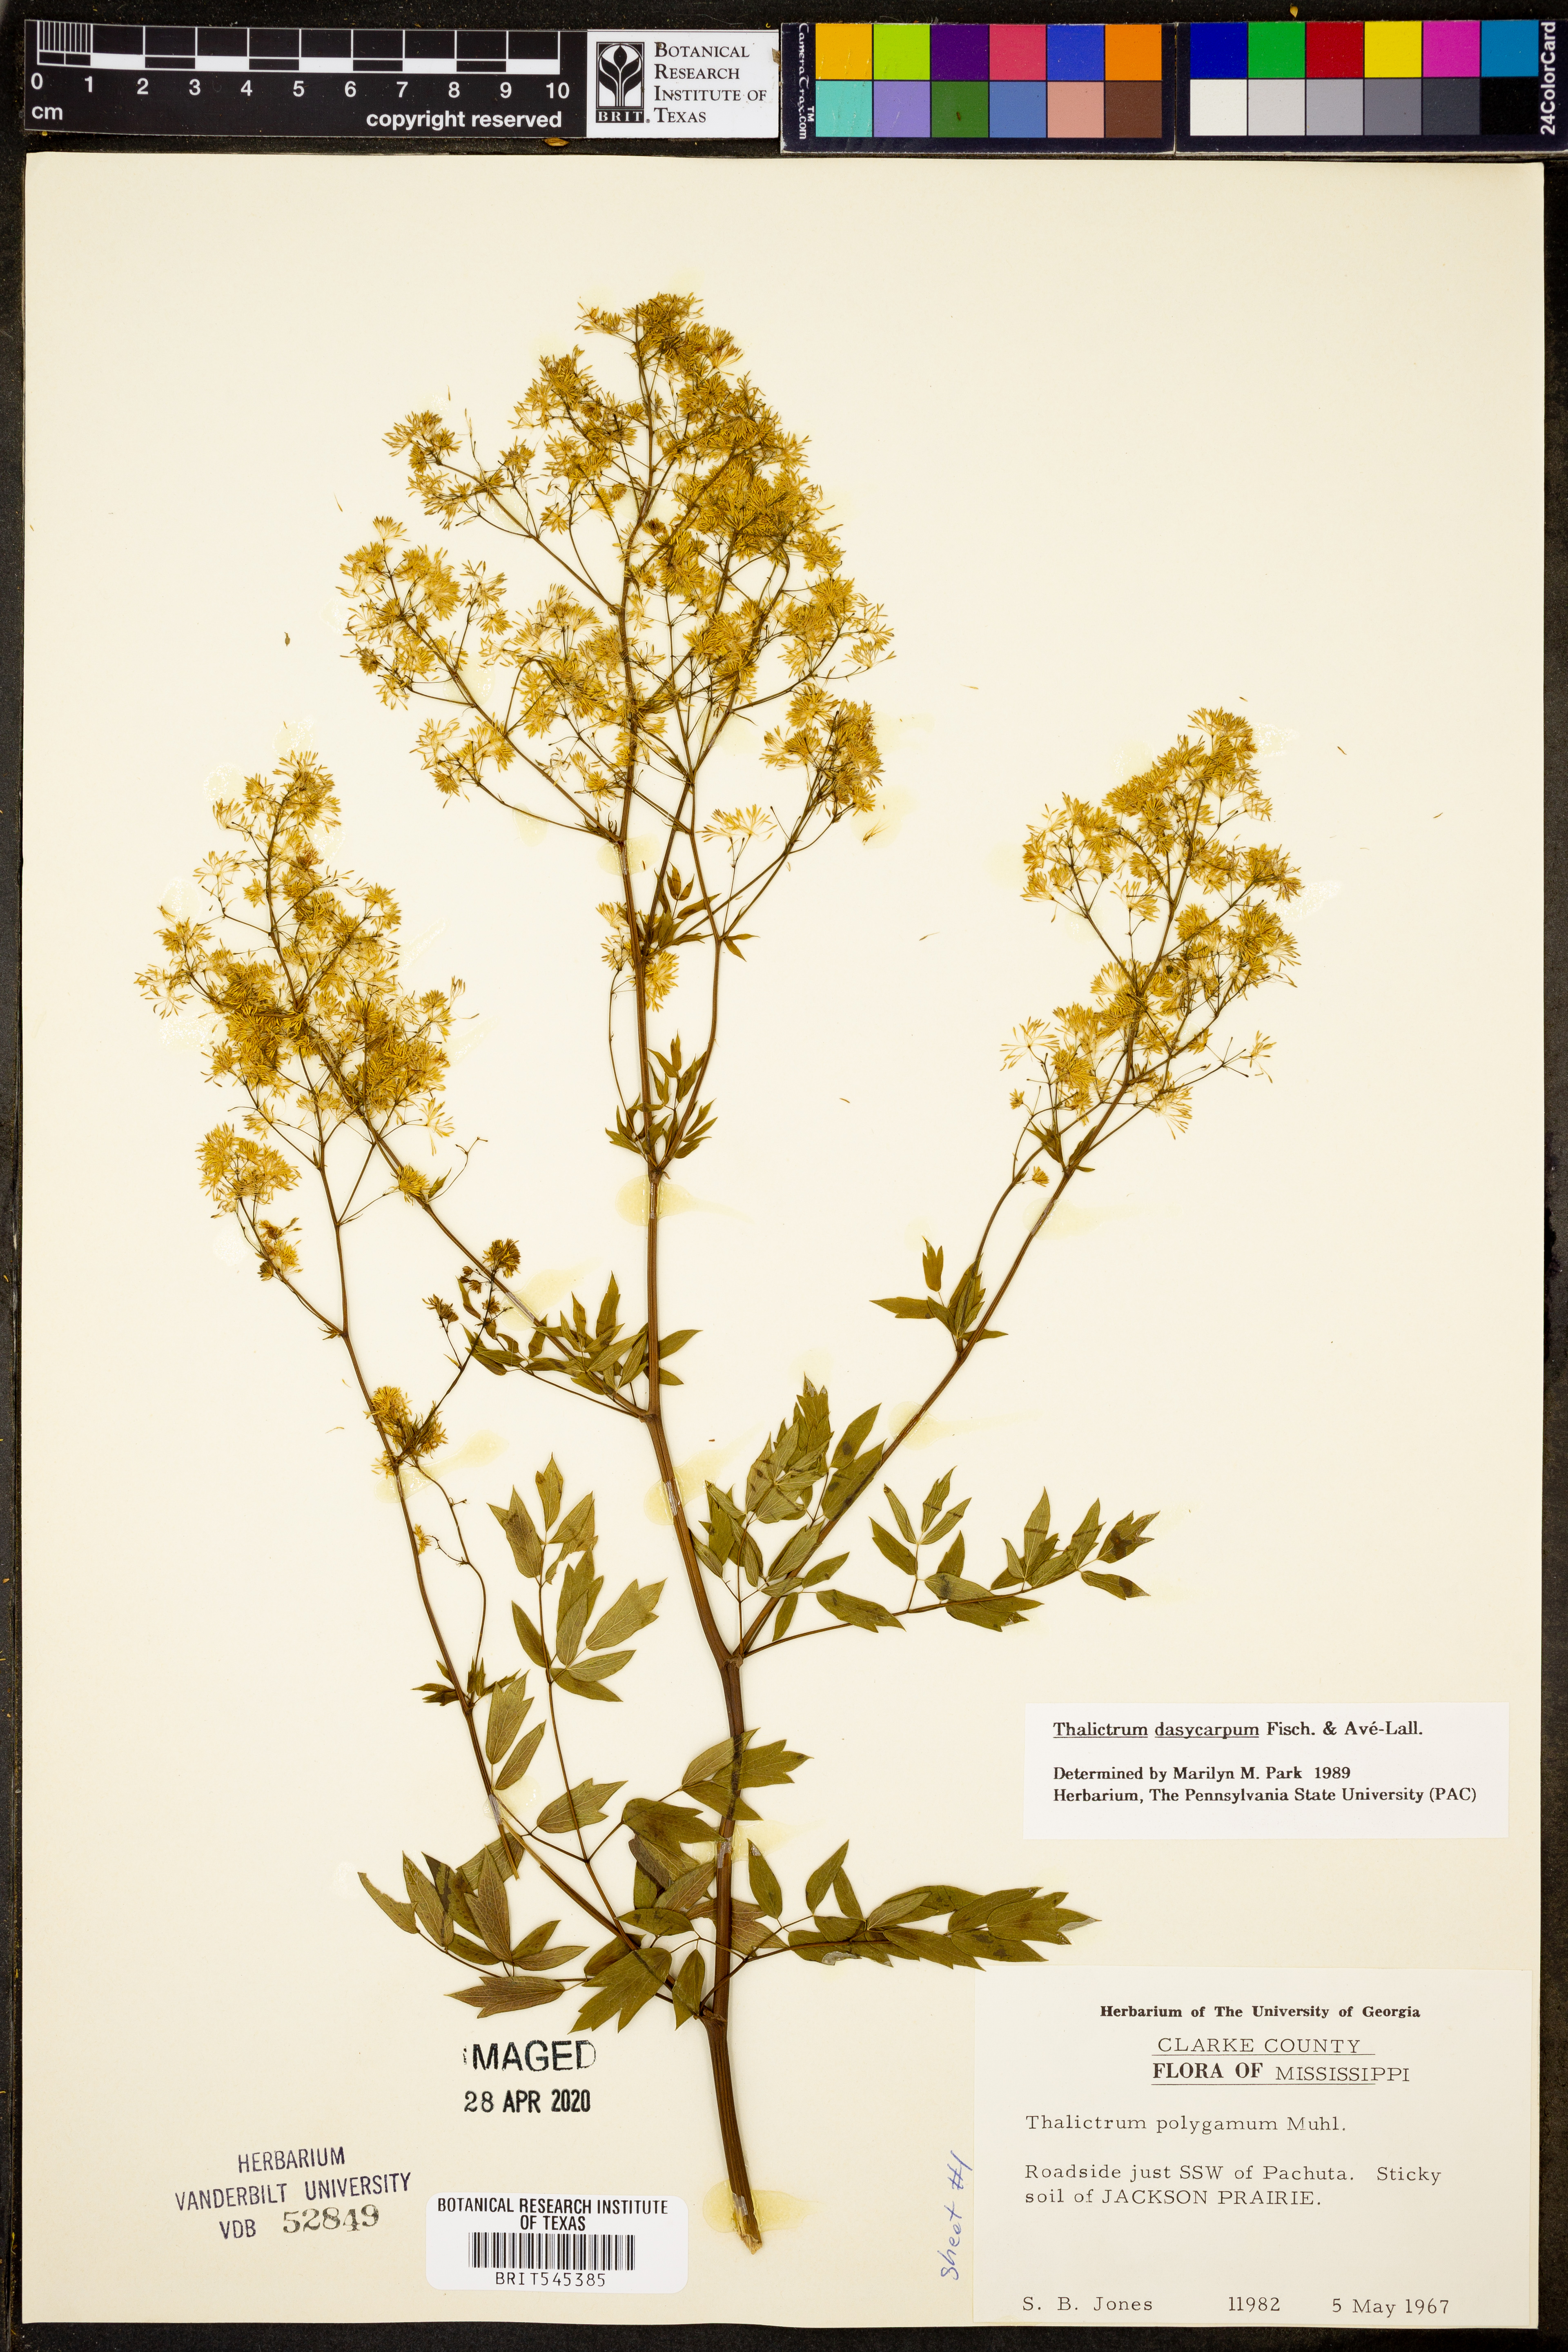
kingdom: Plantae
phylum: Tracheophyta
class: Magnoliopsida
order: Ranunculales
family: Ranunculaceae
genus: Thalictrum
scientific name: Thalictrum dasycarpum
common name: Purple meadow-rue
